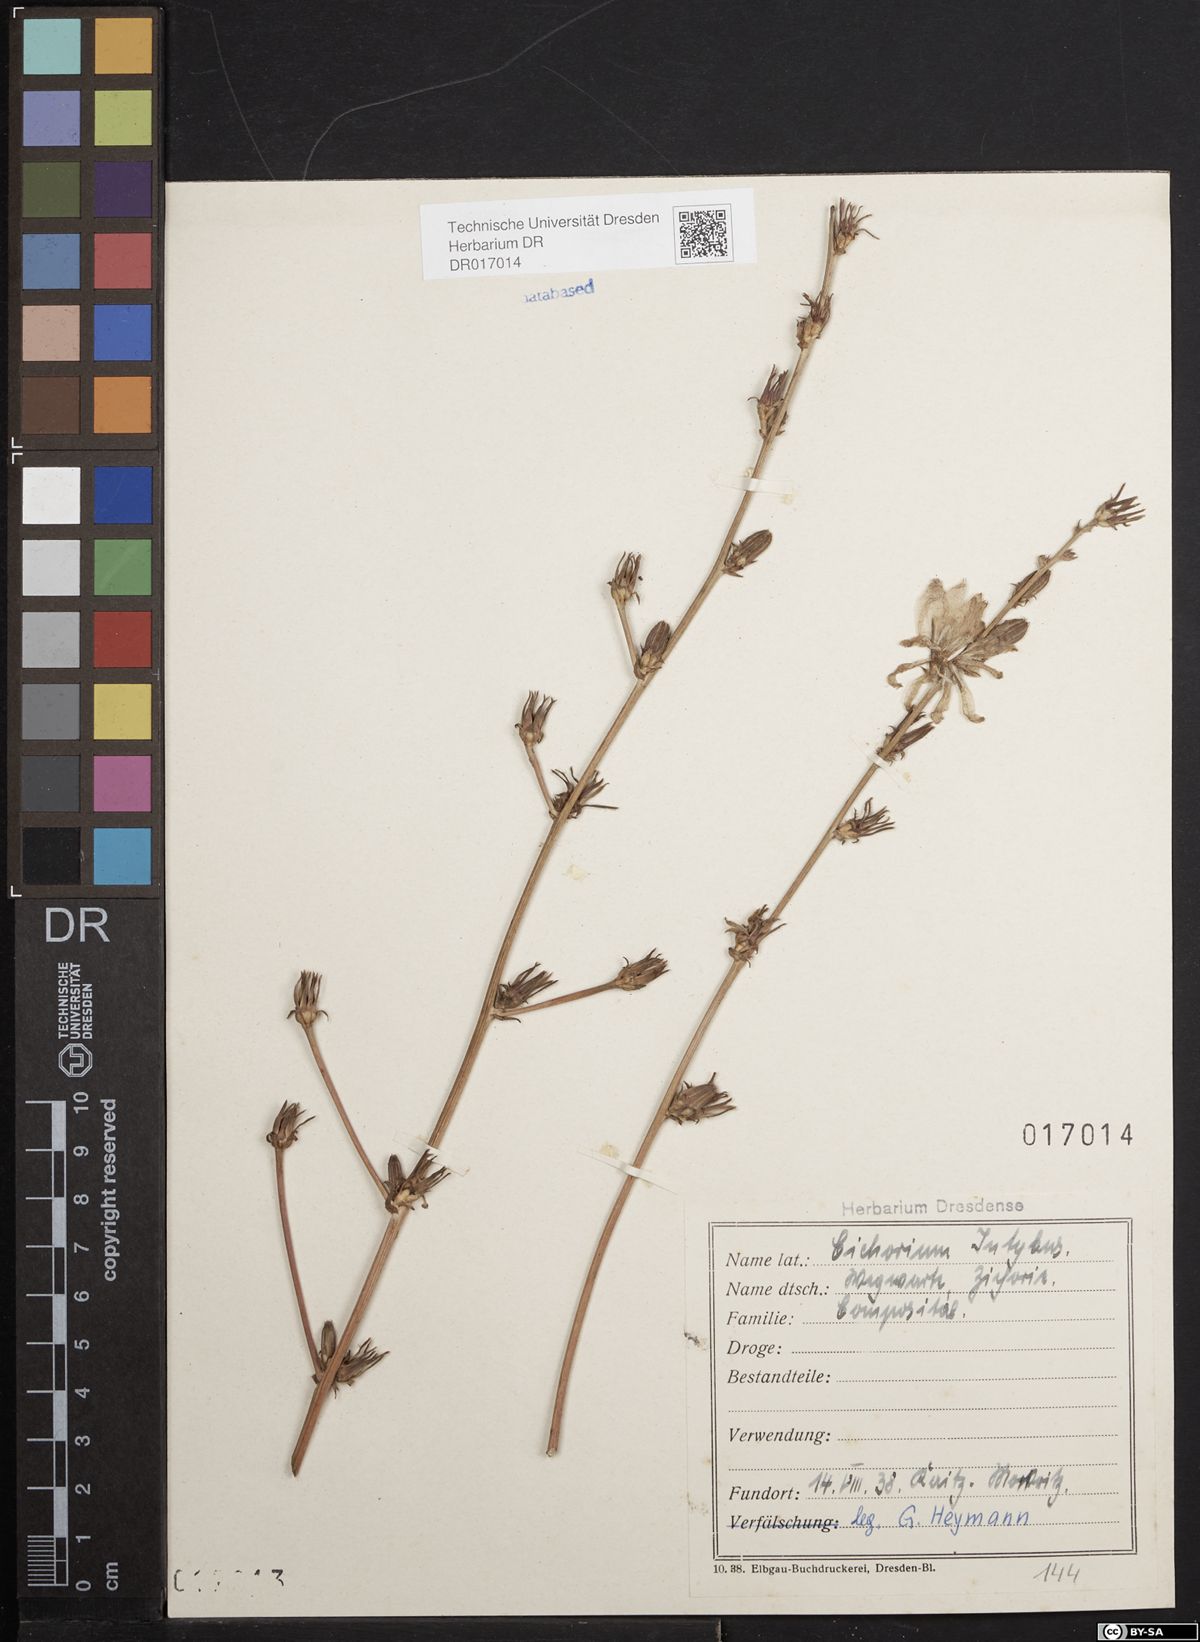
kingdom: Plantae
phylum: Tracheophyta
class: Magnoliopsida
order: Asterales
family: Asteraceae
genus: Cichorium
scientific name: Cichorium intybus
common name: Chicory
